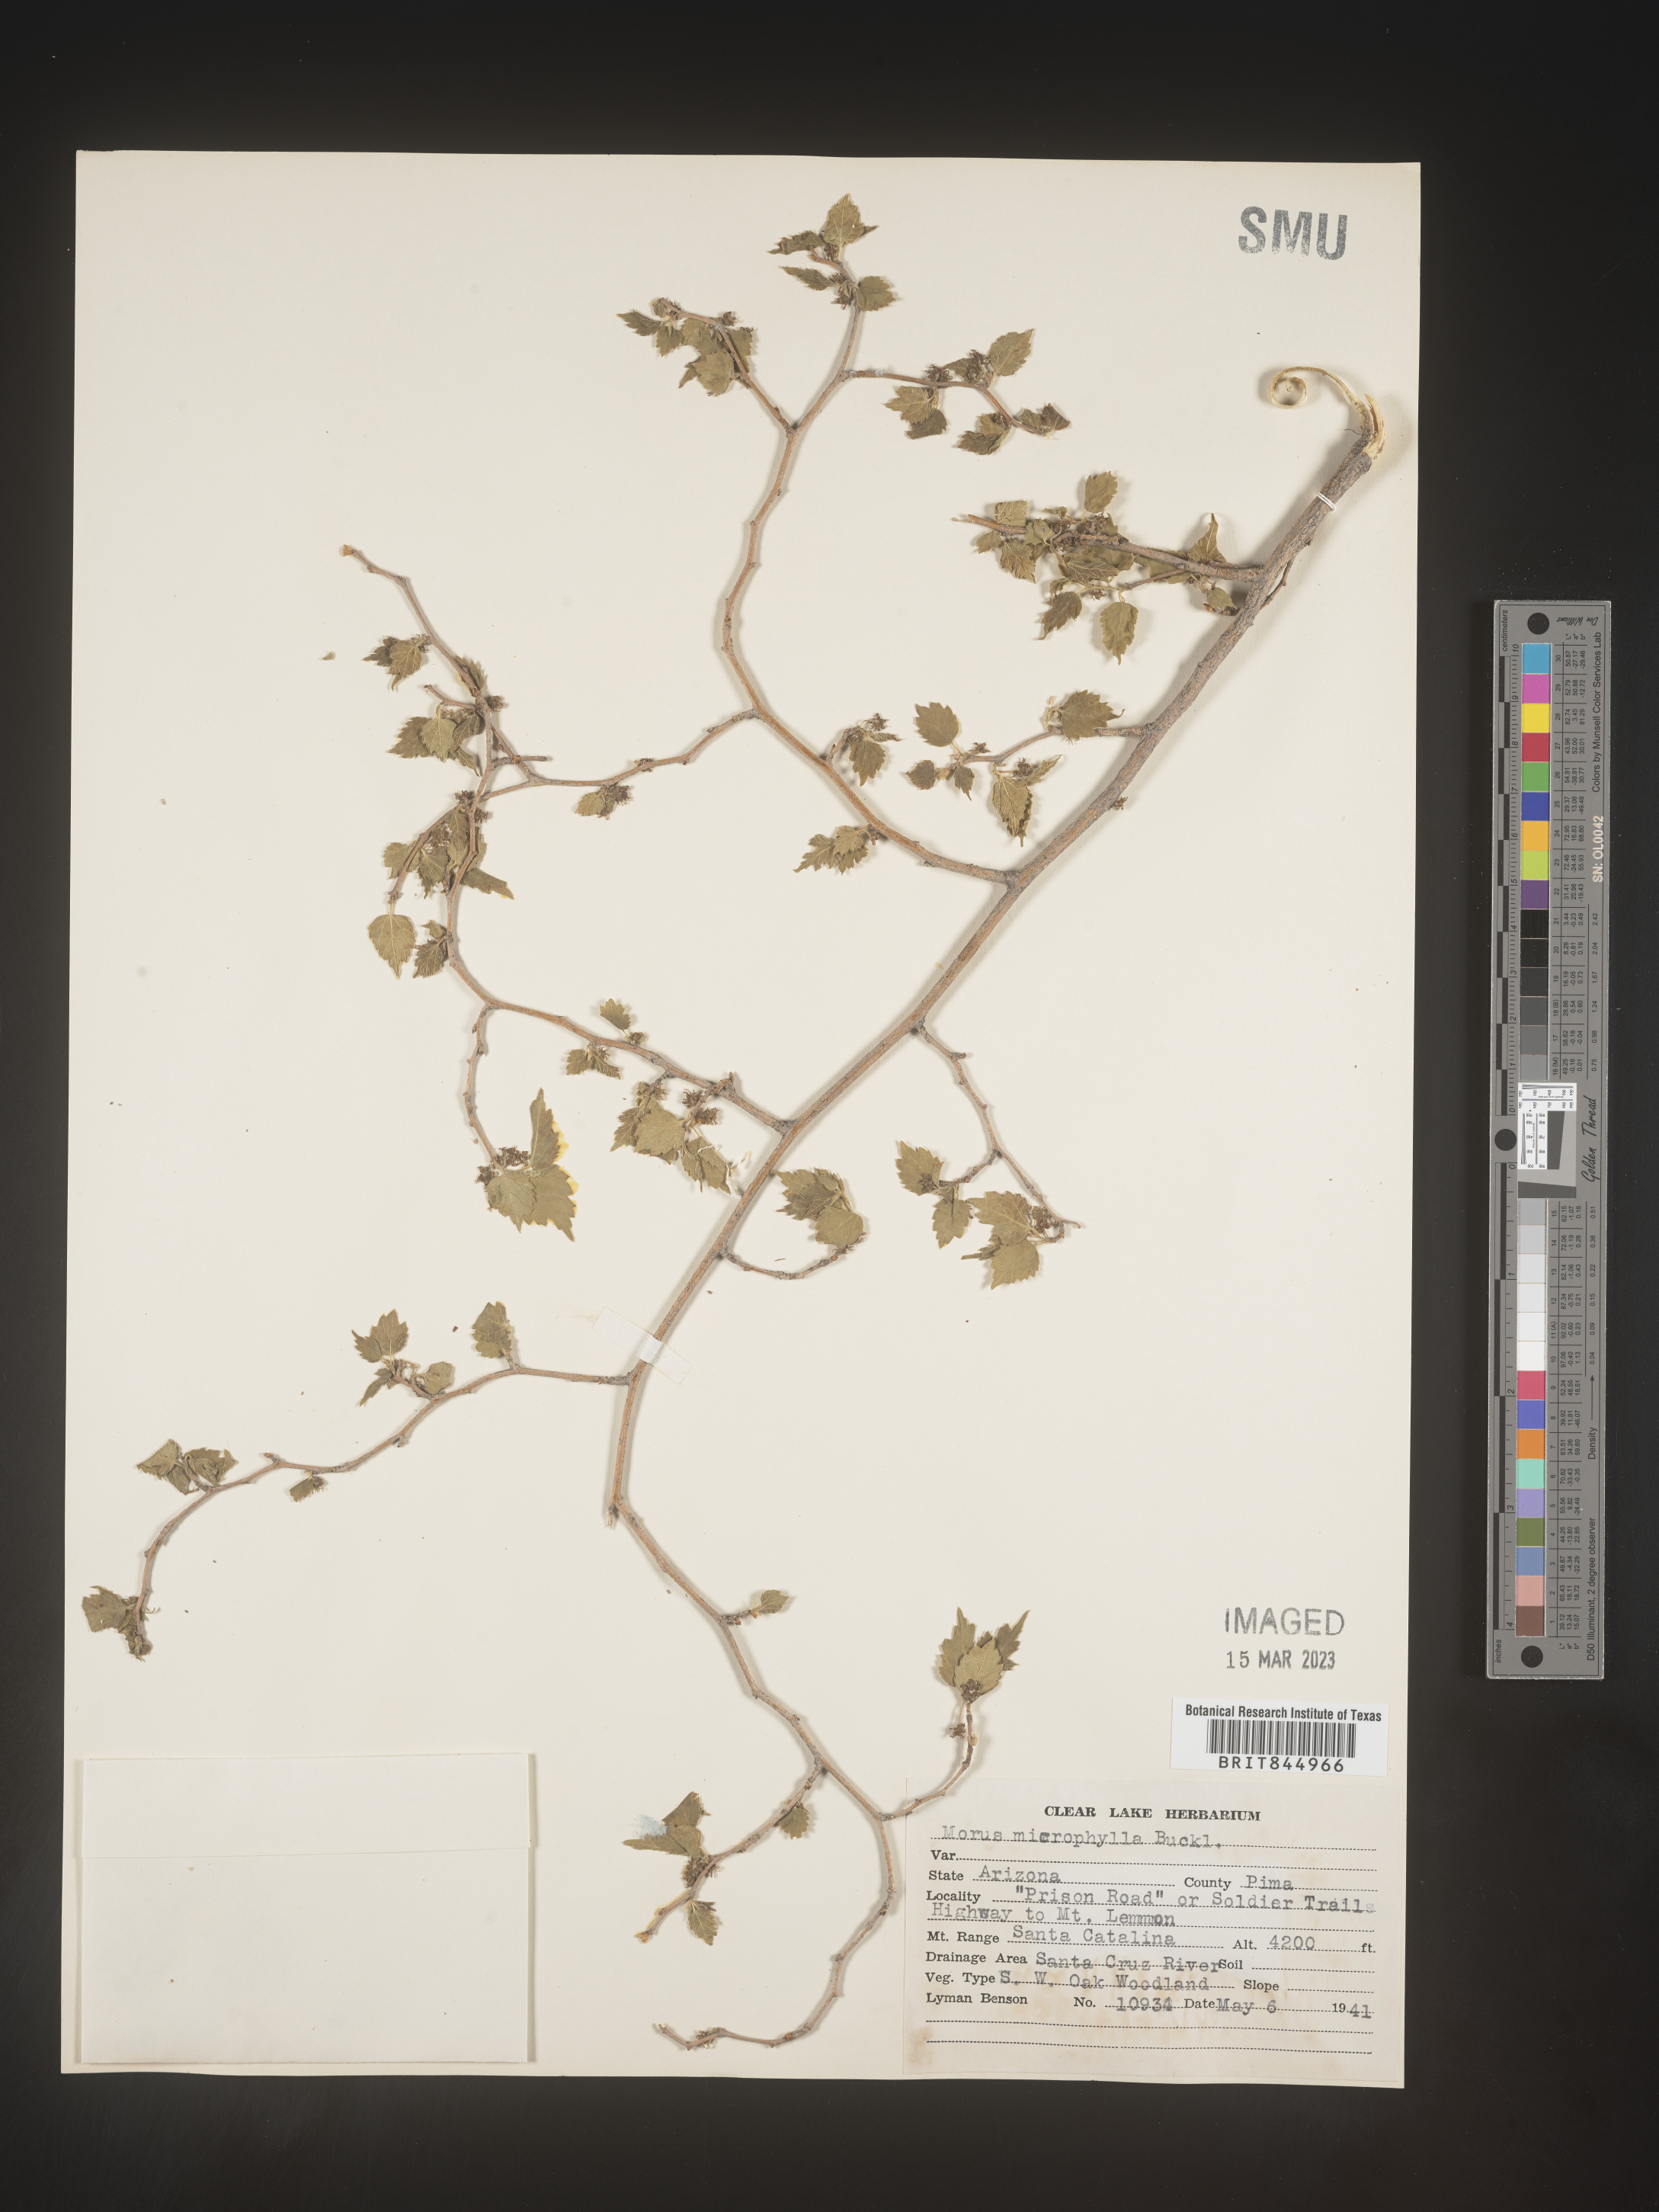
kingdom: Plantae
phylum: Tracheophyta
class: Magnoliopsida
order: Rosales
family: Moraceae
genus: Morus
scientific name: Morus microphylla
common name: Mexican mulberry
